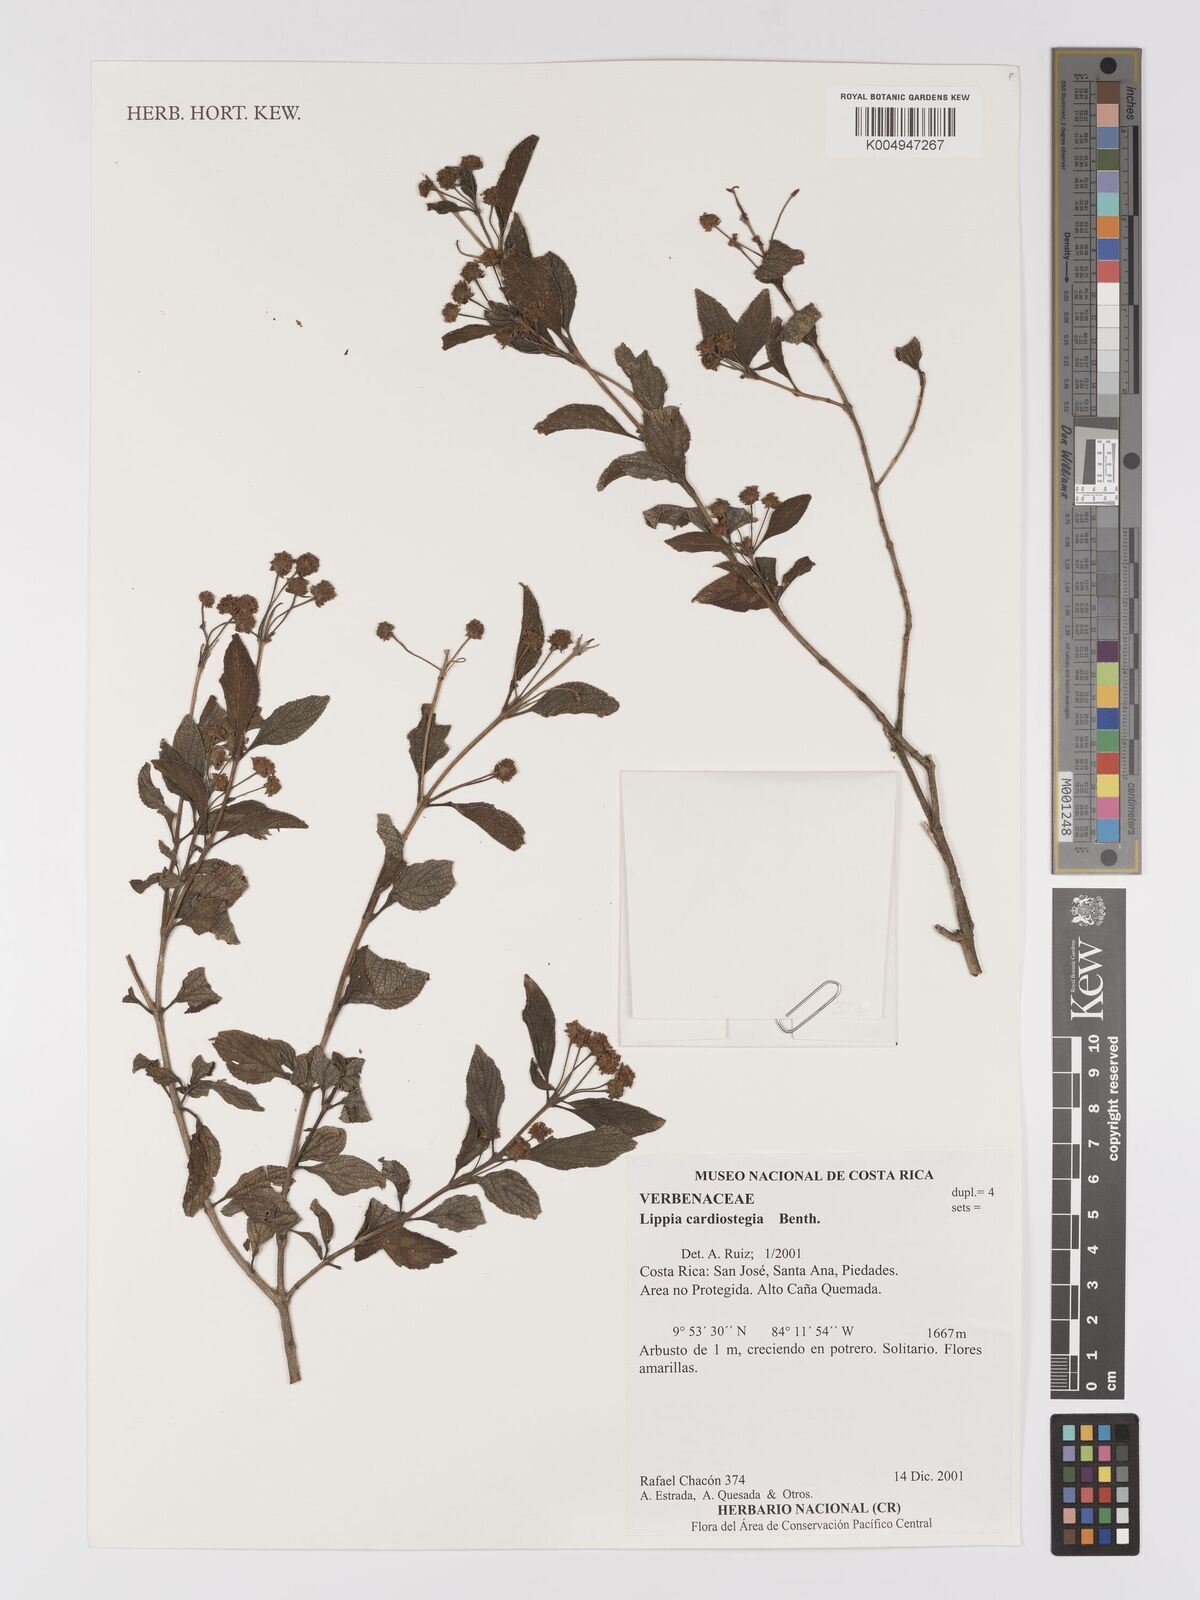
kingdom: Plantae
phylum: Tracheophyta
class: Magnoliopsida
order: Lamiales
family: Verbenaceae
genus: Lippia
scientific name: Lippia cardiostegia
